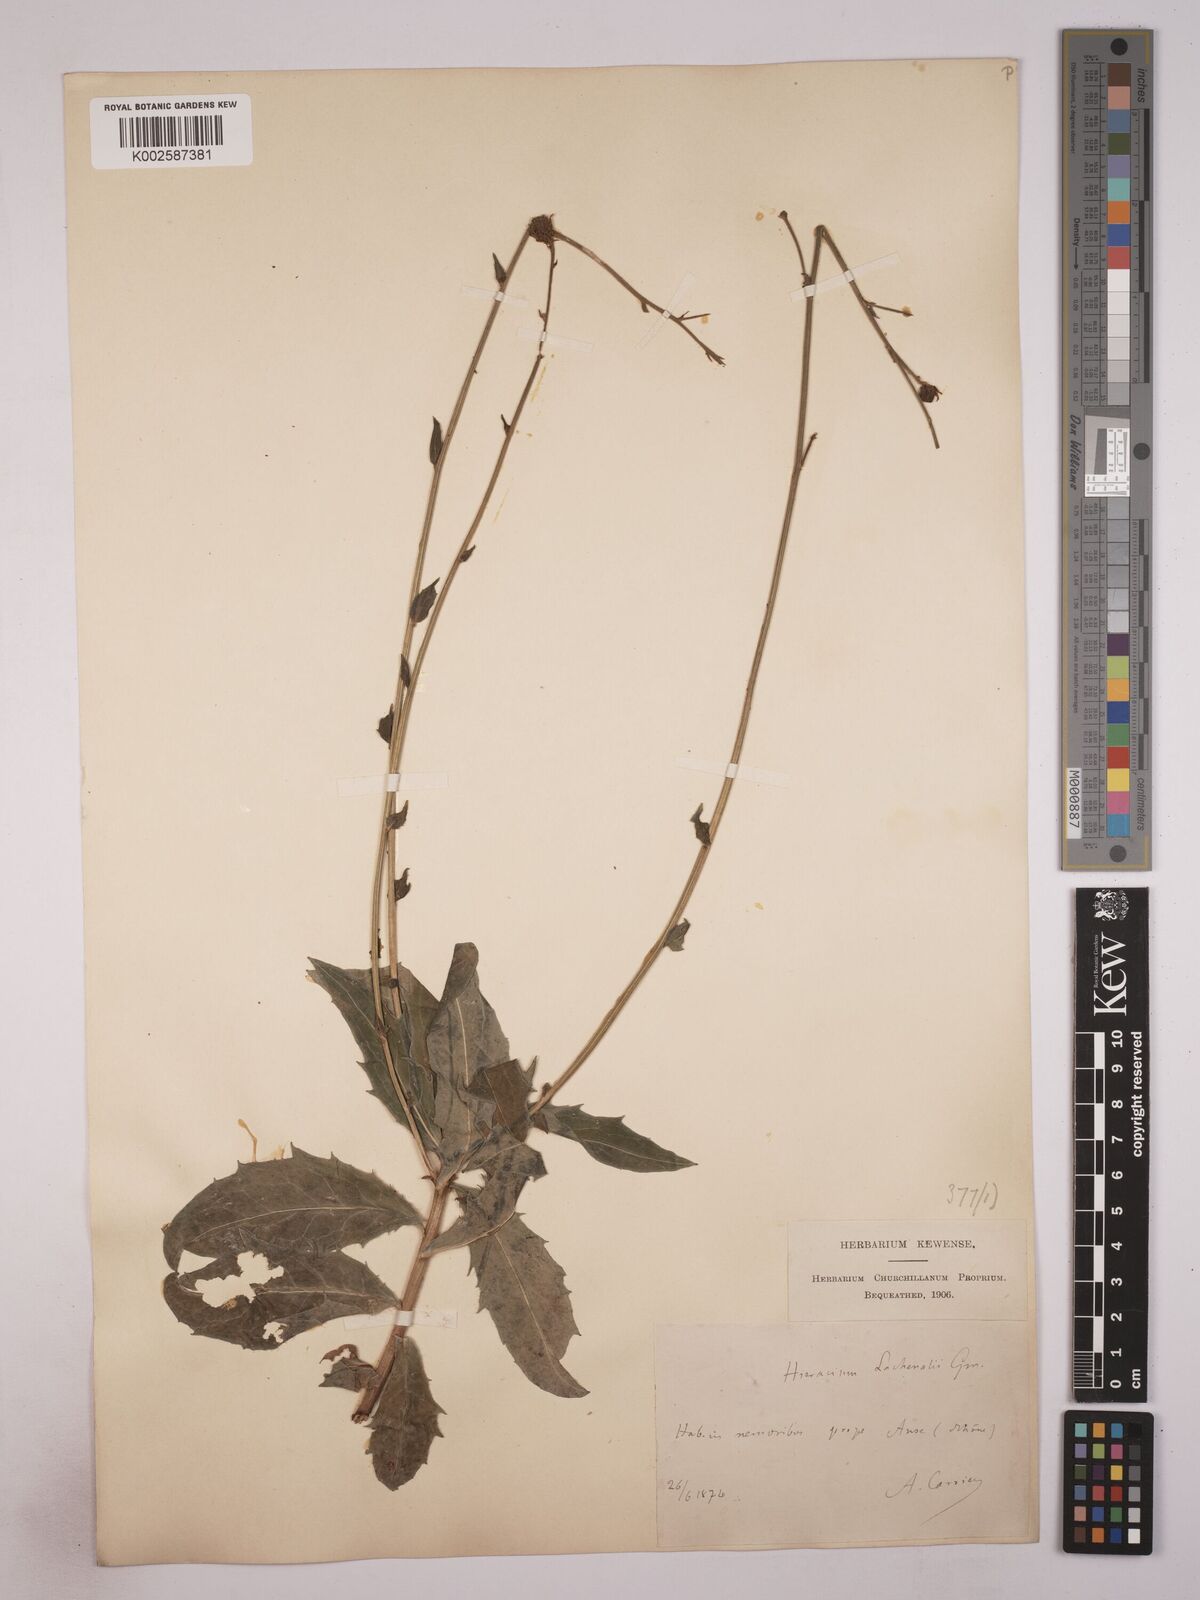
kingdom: Plantae
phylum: Tracheophyta
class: Magnoliopsida
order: Asterales
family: Asteraceae
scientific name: Asteraceae
